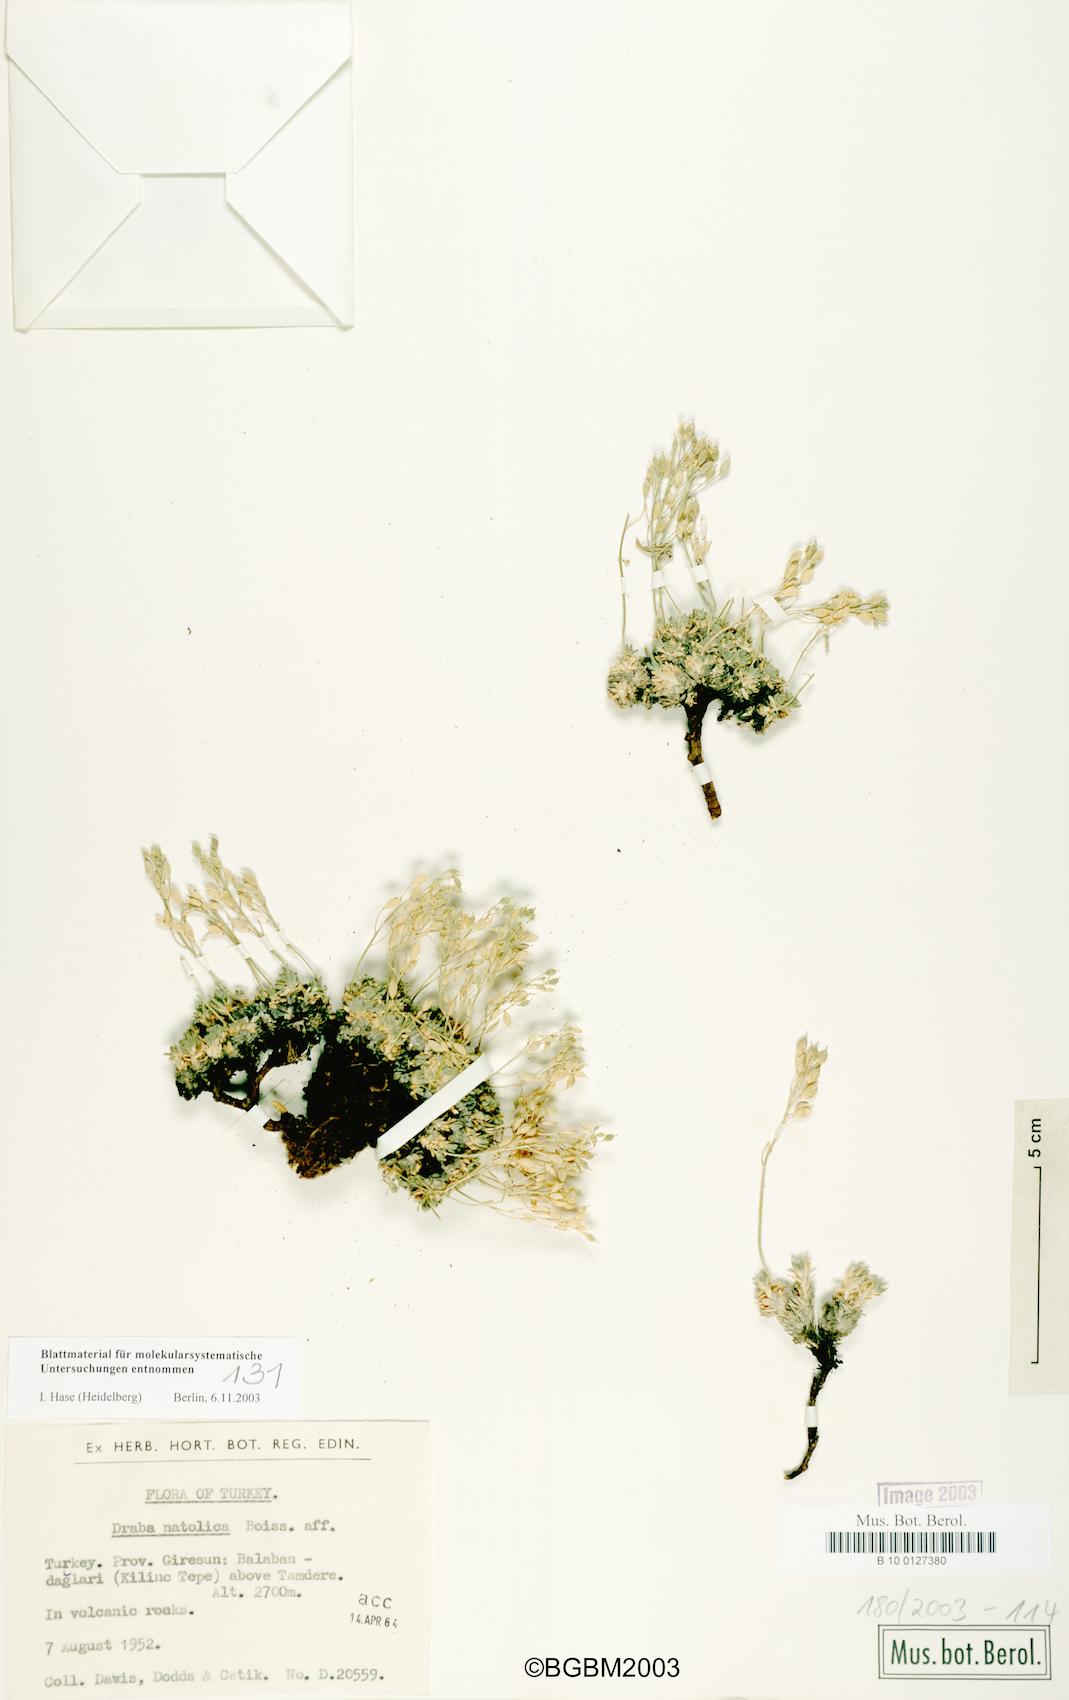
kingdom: Plantae
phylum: Tracheophyta
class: Magnoliopsida
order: Brassicales
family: Brassicaceae
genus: Draba
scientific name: Draba bruniifolia
